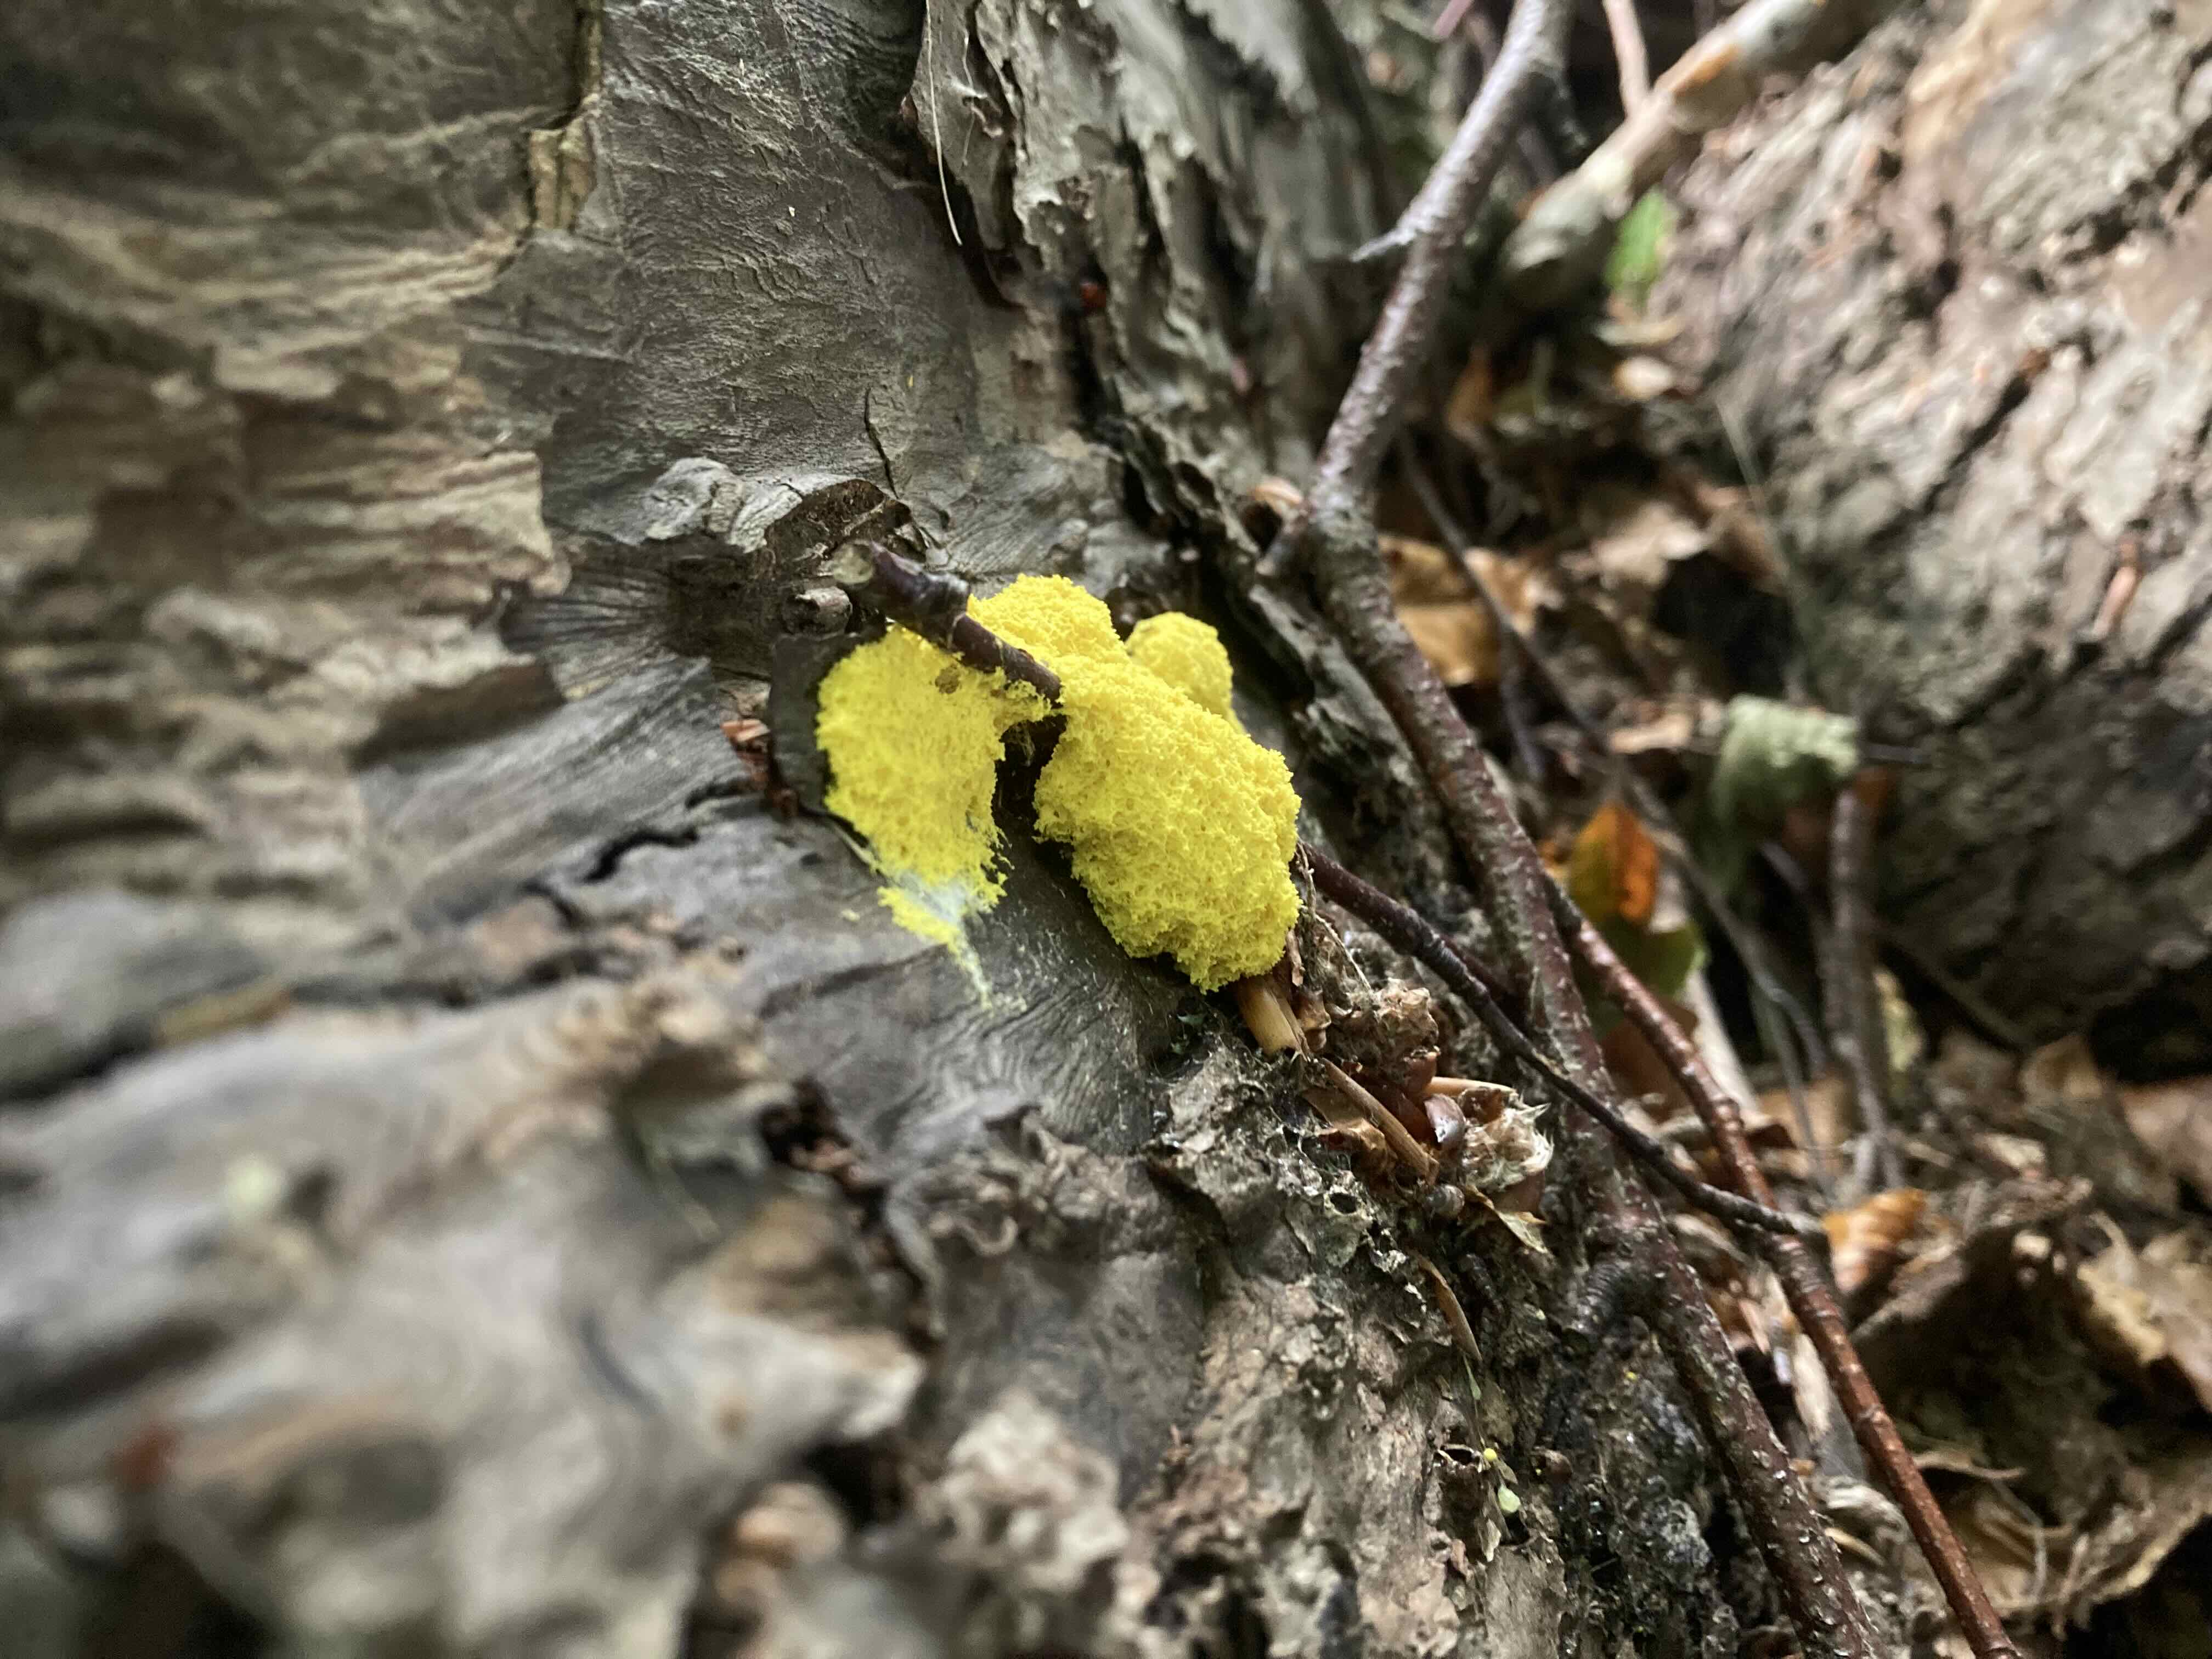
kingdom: Protozoa
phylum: Mycetozoa
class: Myxomycetes
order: Physarales
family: Physaraceae
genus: Fuligo
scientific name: Fuligo septica
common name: gul troldsmør
